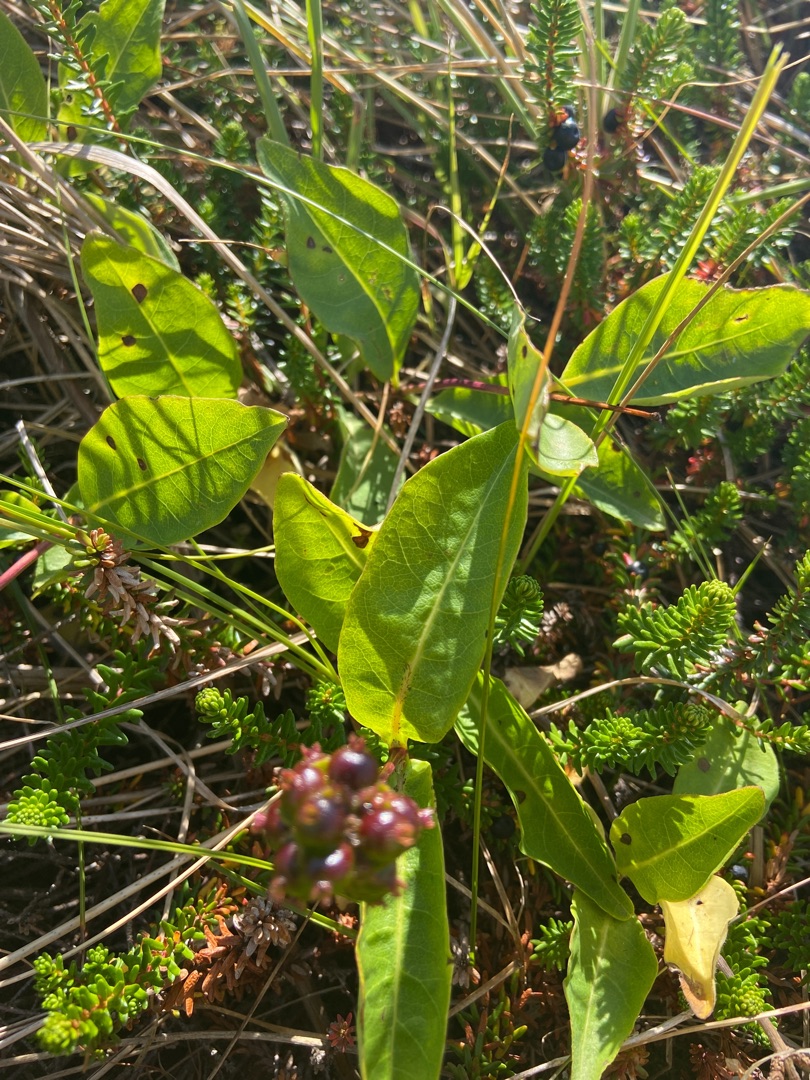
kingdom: Plantae
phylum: Tracheophyta
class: Magnoliopsida
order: Dipsacales
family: Caprifoliaceae
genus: Lonicera
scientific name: Lonicera periclymenum
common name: Almindelig gedeblad
